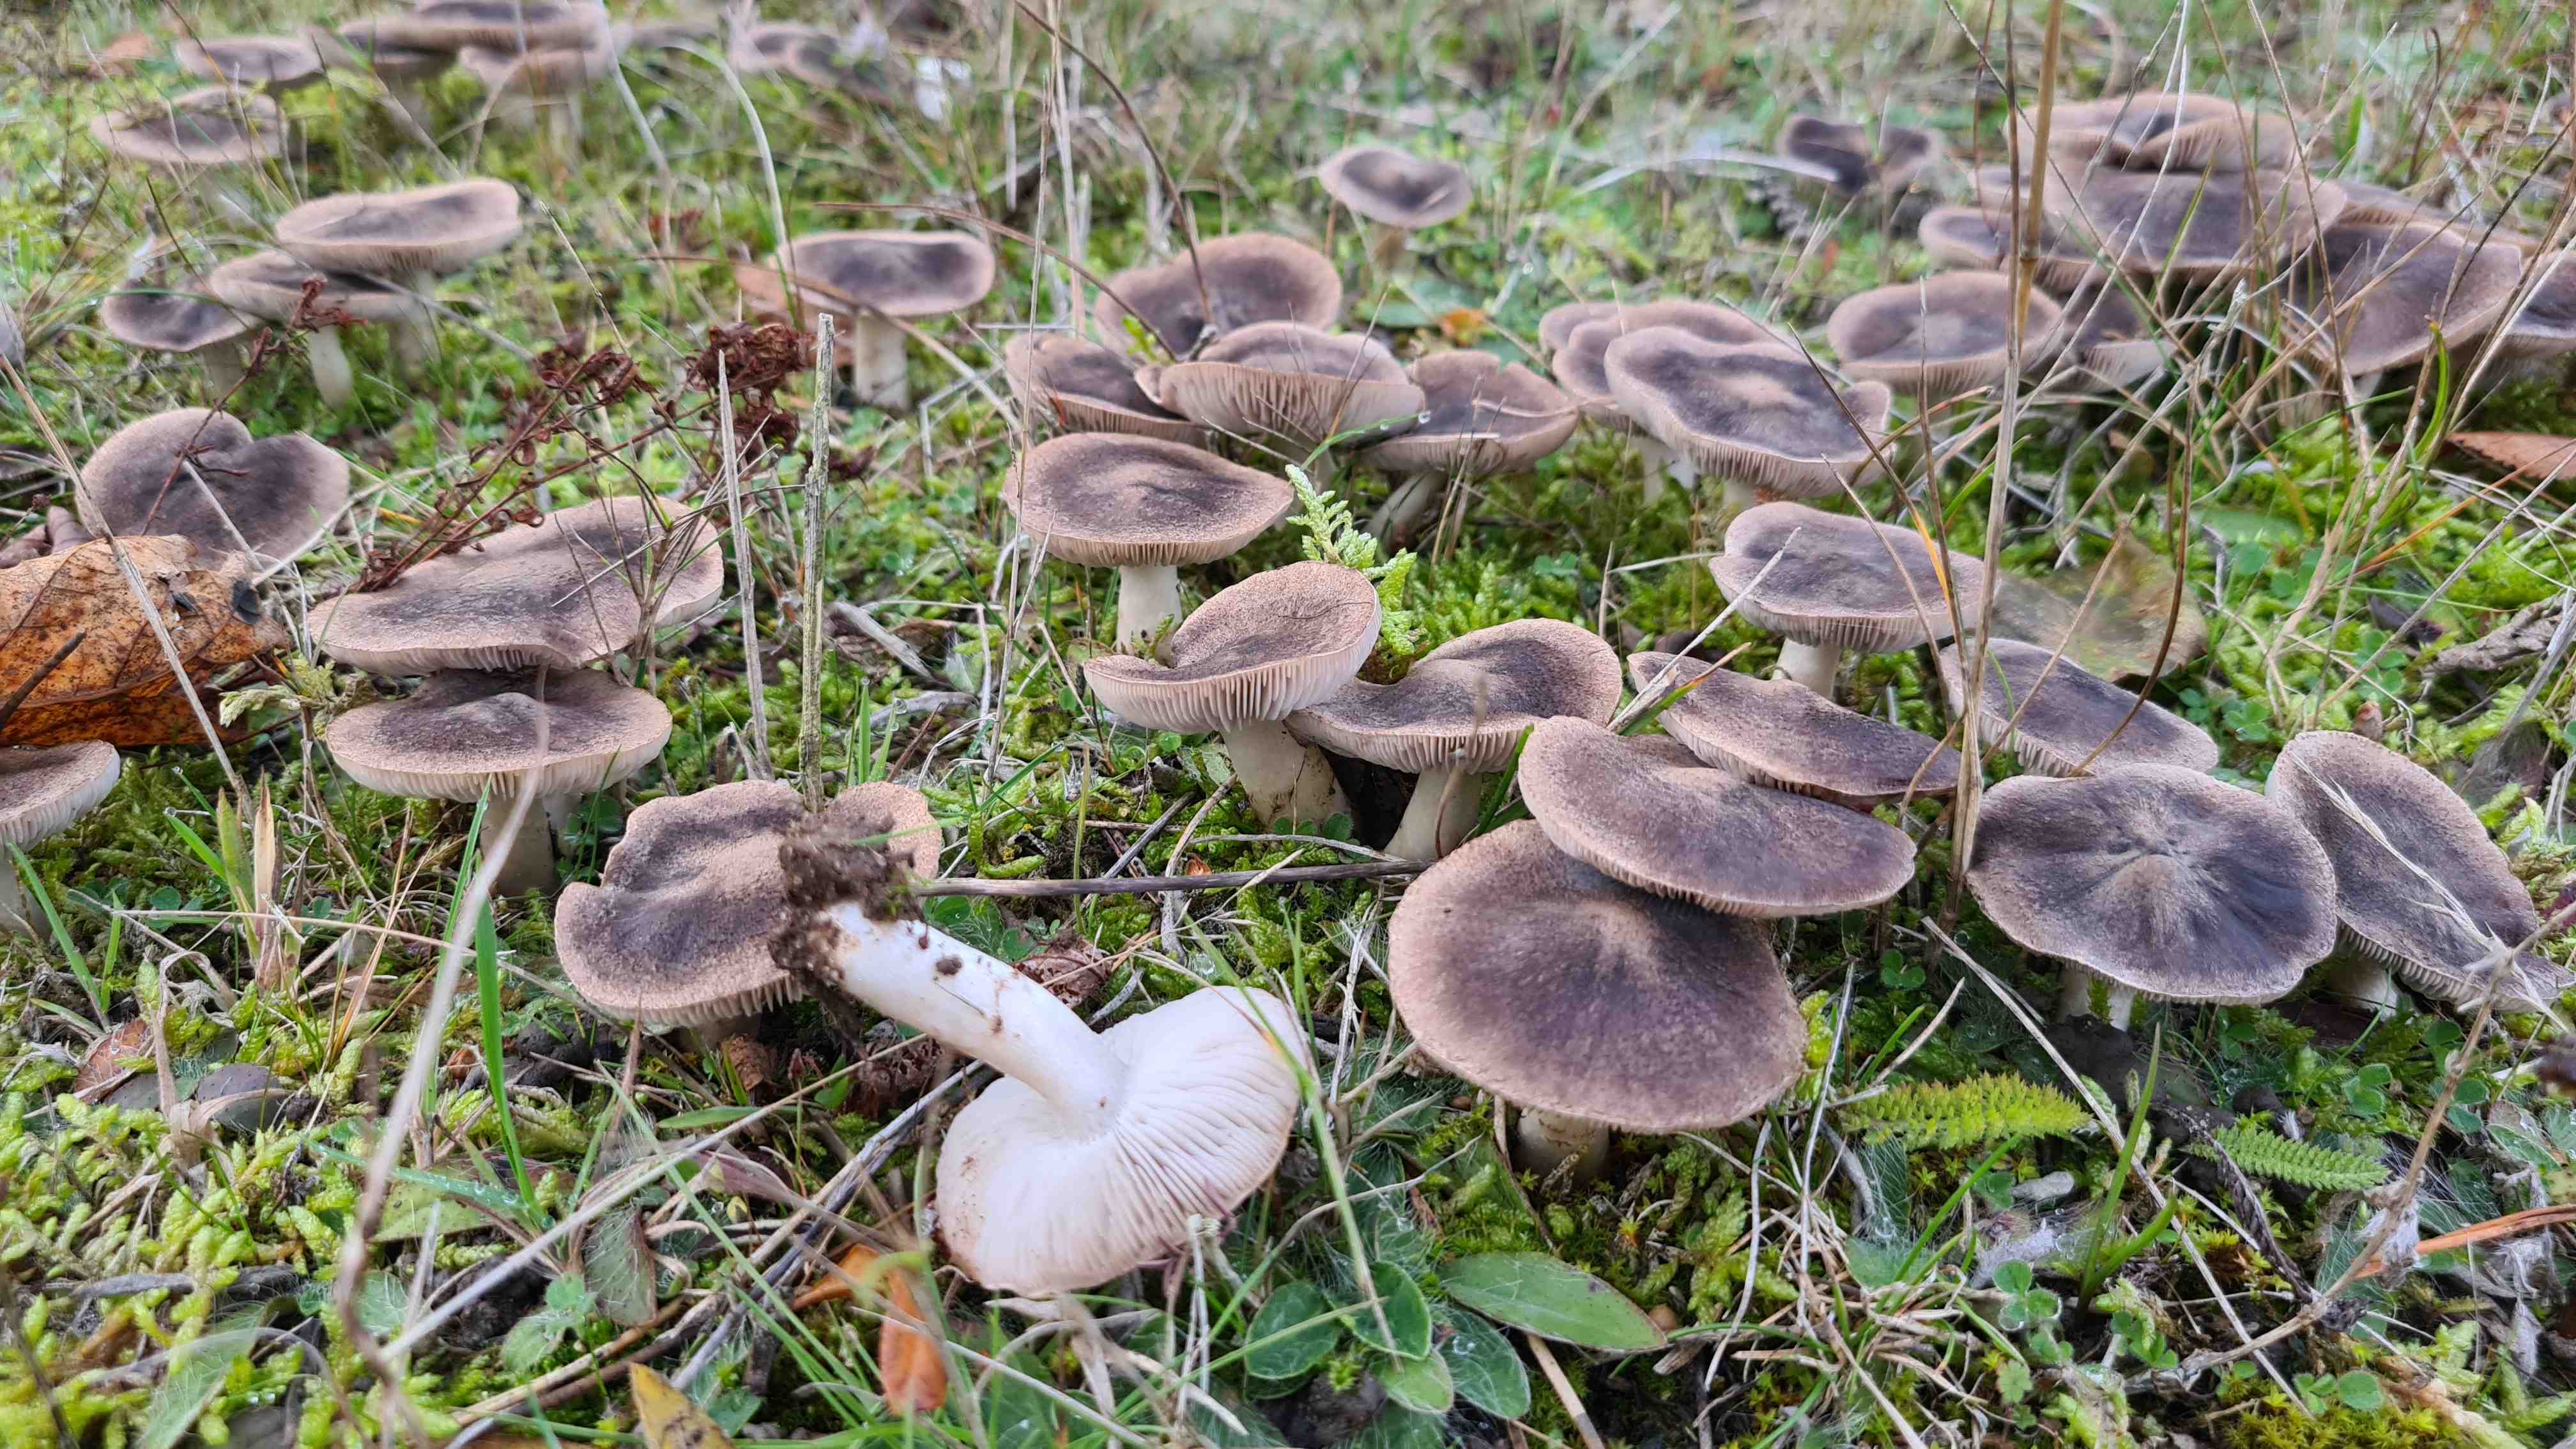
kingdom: Fungi
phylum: Basidiomycota
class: Agaricomycetes
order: Agaricales
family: Tricholomataceae
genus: Tricholoma
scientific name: Tricholoma terreum
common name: jordfarvet ridderhat
